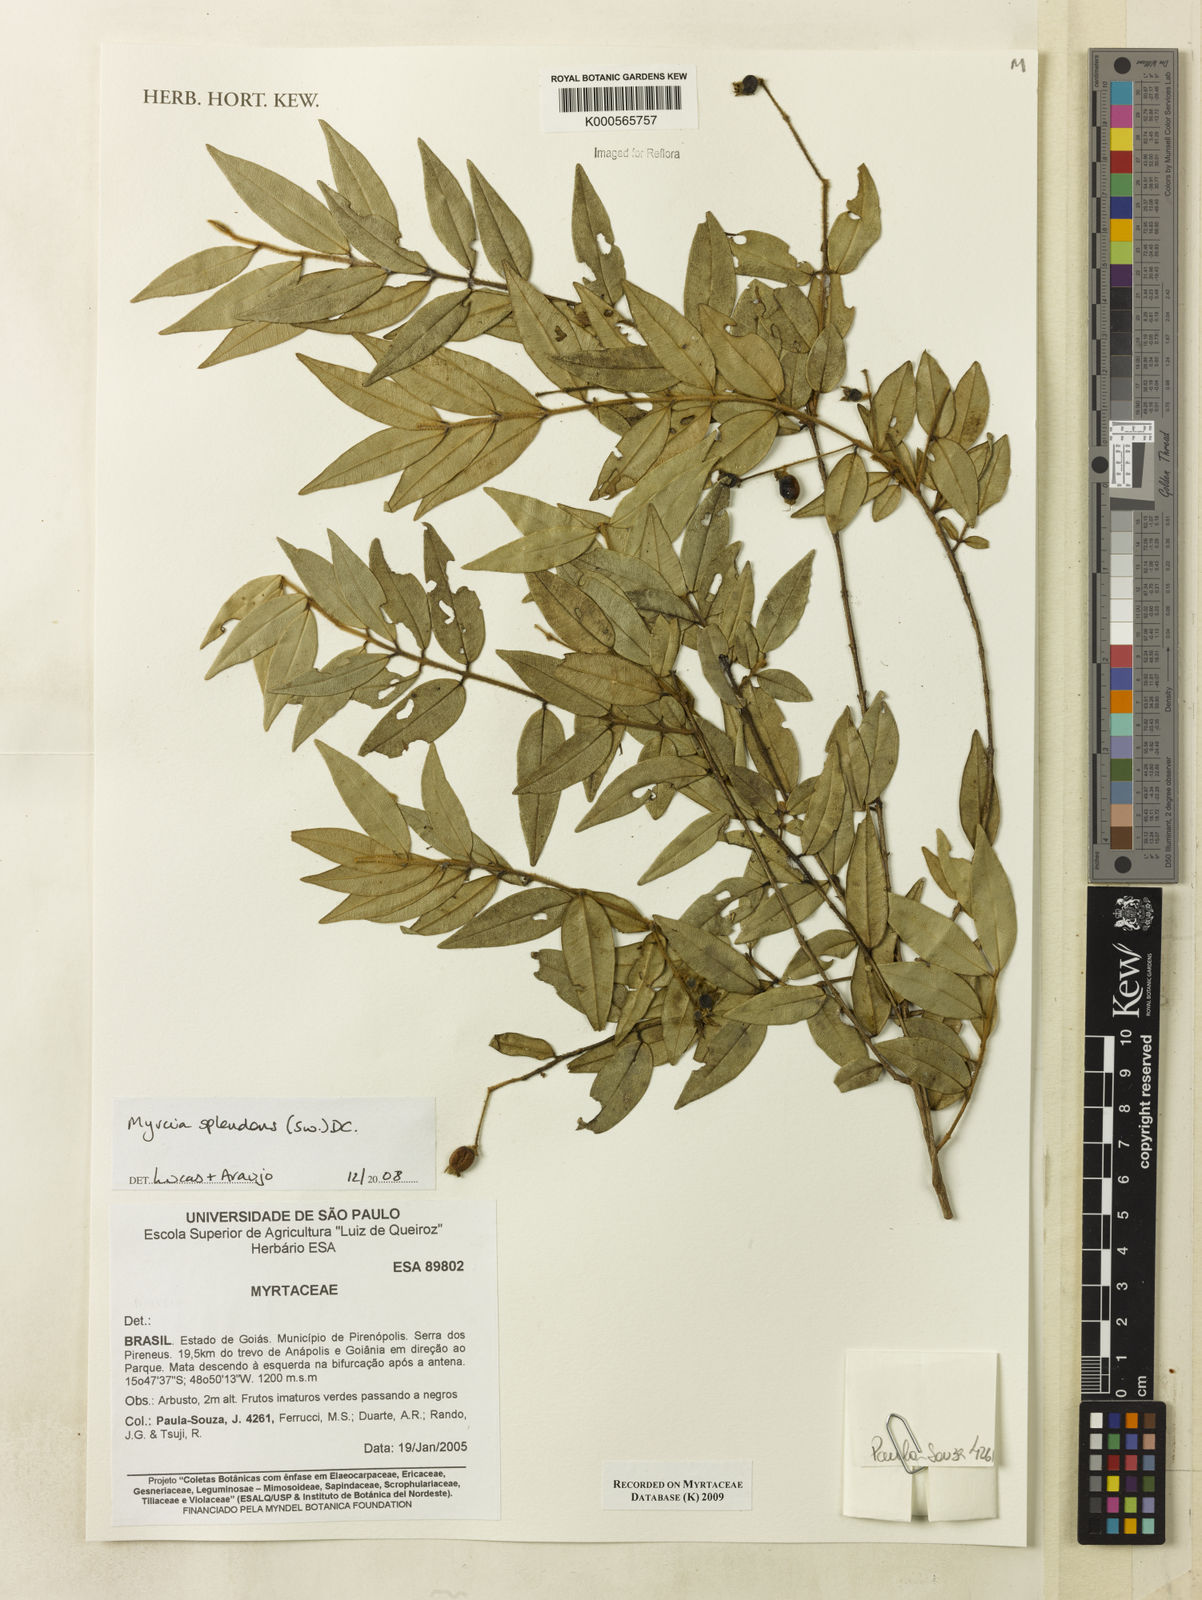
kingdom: Plantae
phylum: Tracheophyta
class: Magnoliopsida
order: Myrtales
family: Myrtaceae
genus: Myrcia
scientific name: Myrcia splendens
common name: Surinam cherry
